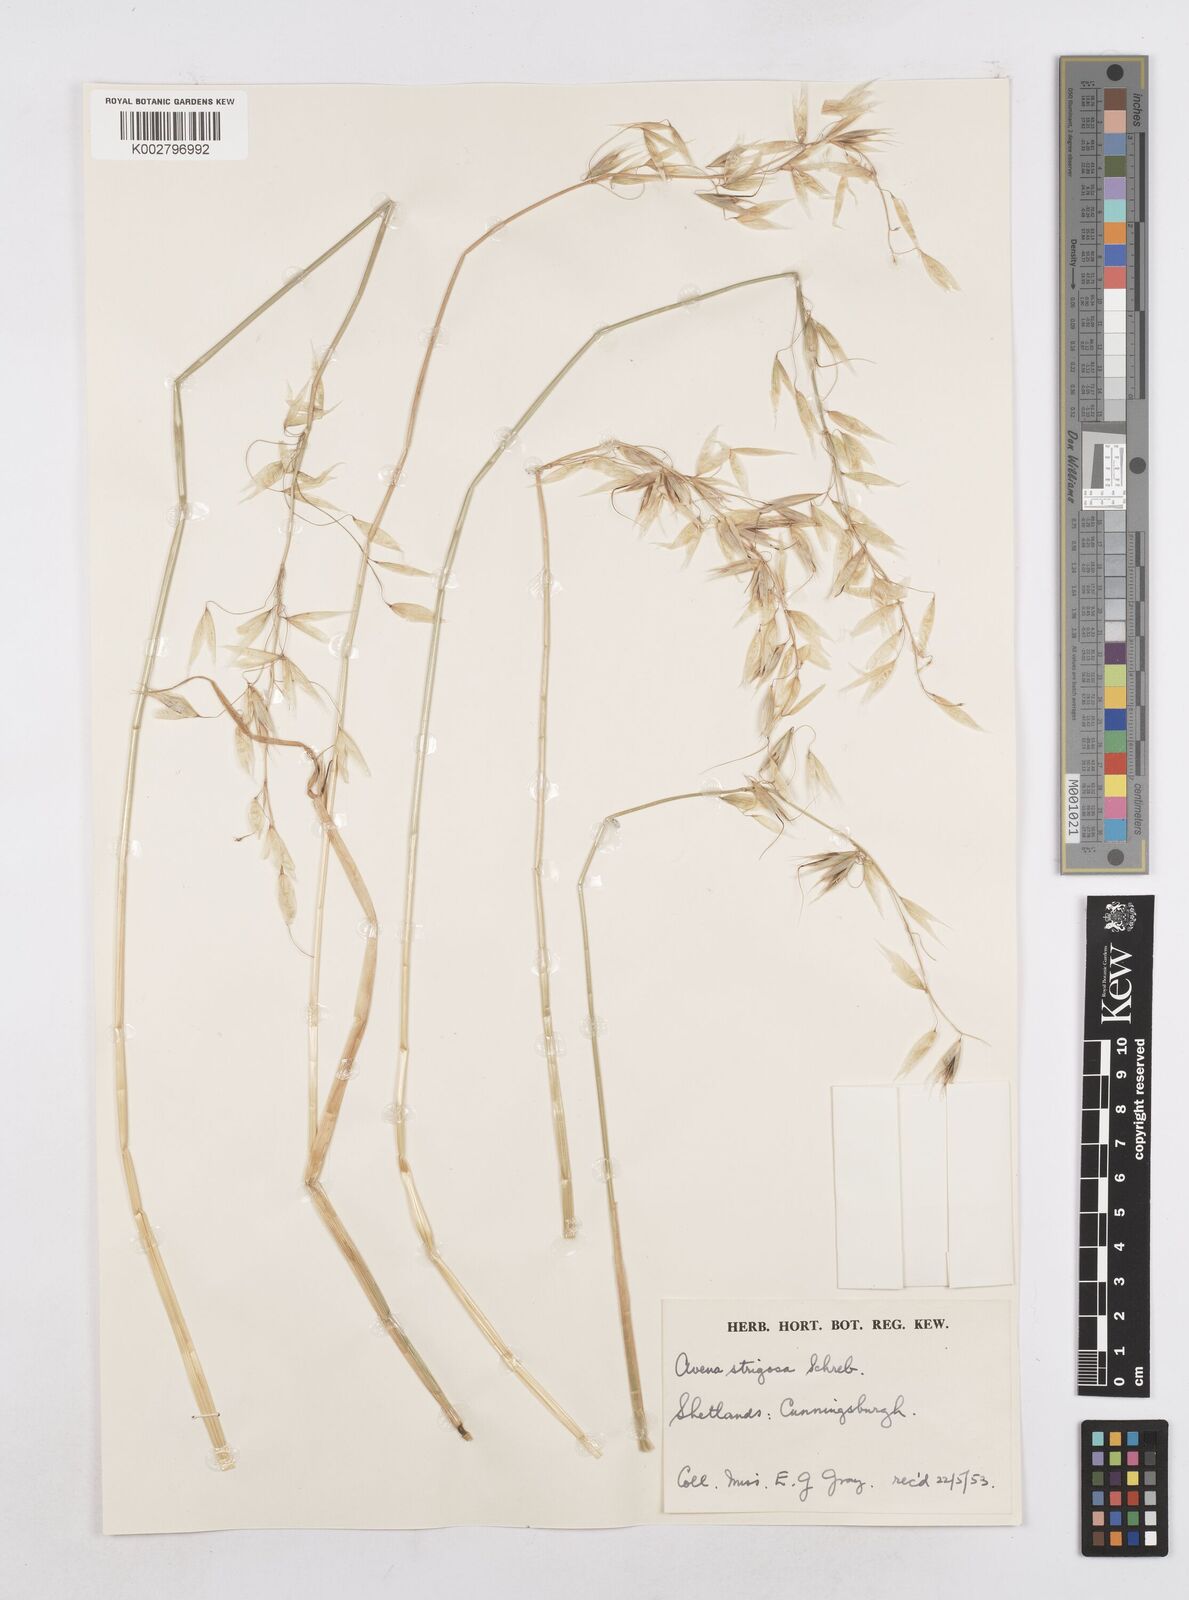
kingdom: Plantae
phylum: Tracheophyta
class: Liliopsida
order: Poales
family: Poaceae
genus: Avena
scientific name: Avena strigosa
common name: Bristle oat
